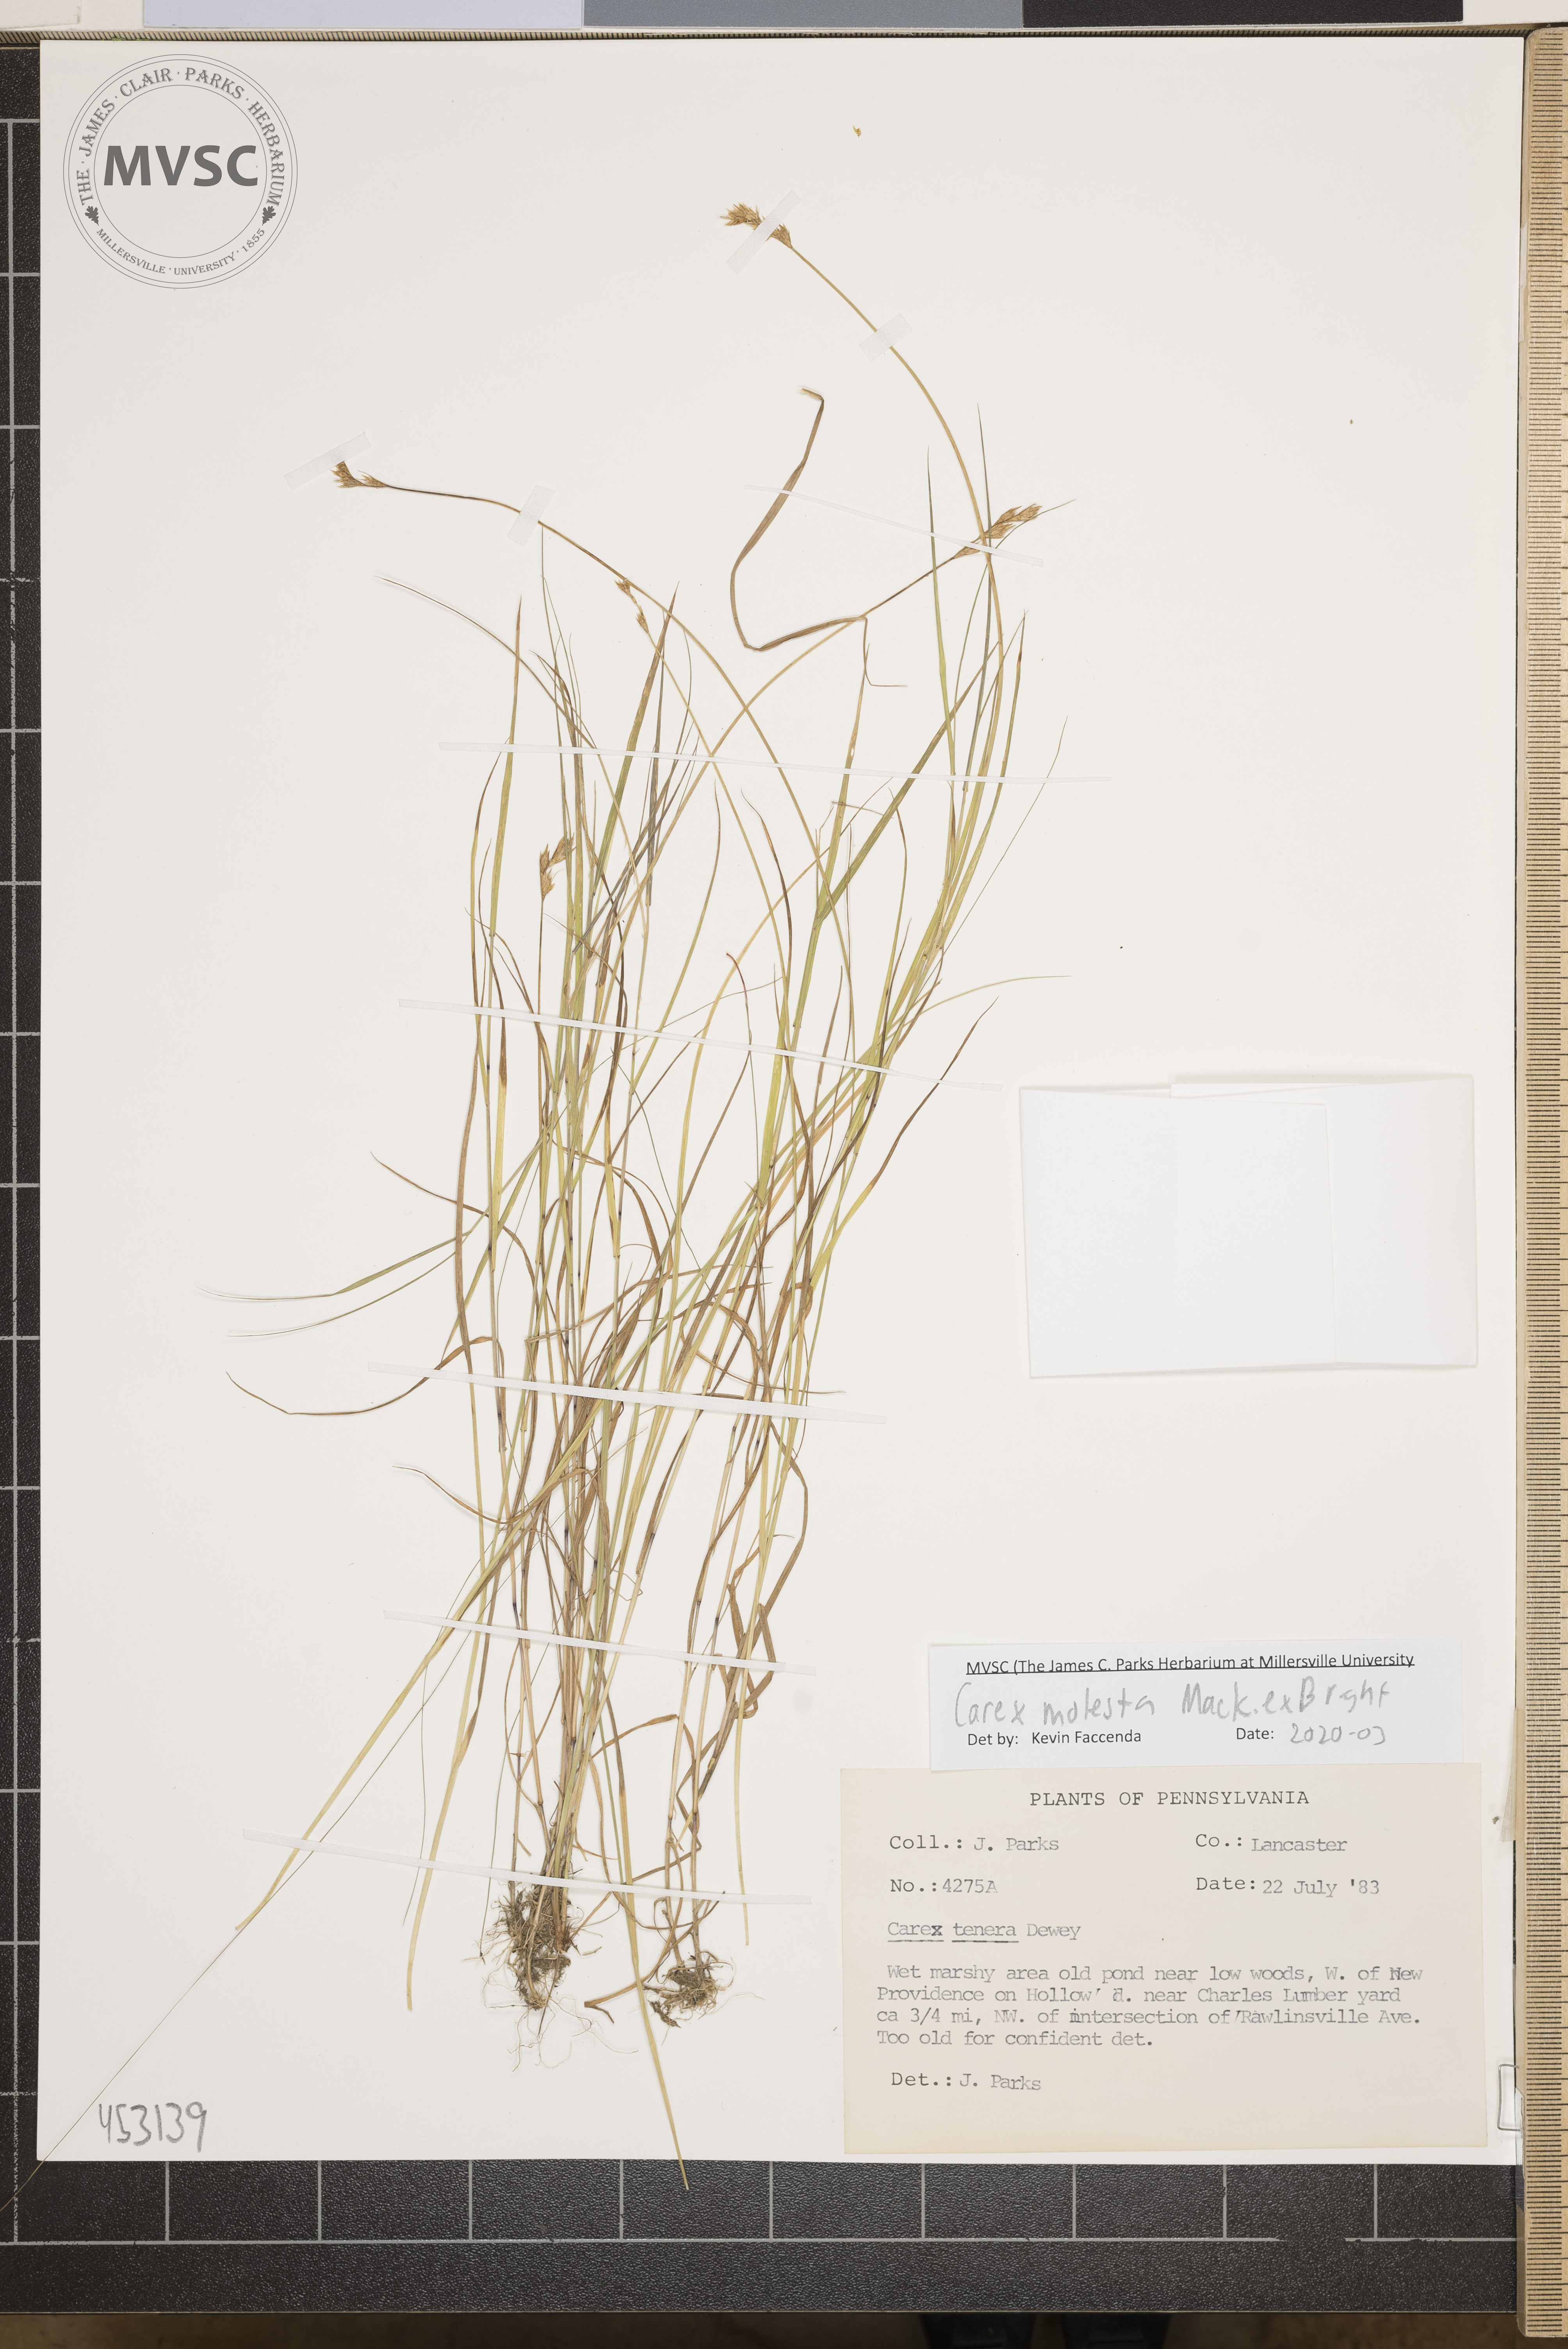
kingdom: Plantae
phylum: Tracheophyta
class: Liliopsida
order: Poales
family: Cyperaceae
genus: Carex
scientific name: Carex molesta
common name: Troublesome sedge
